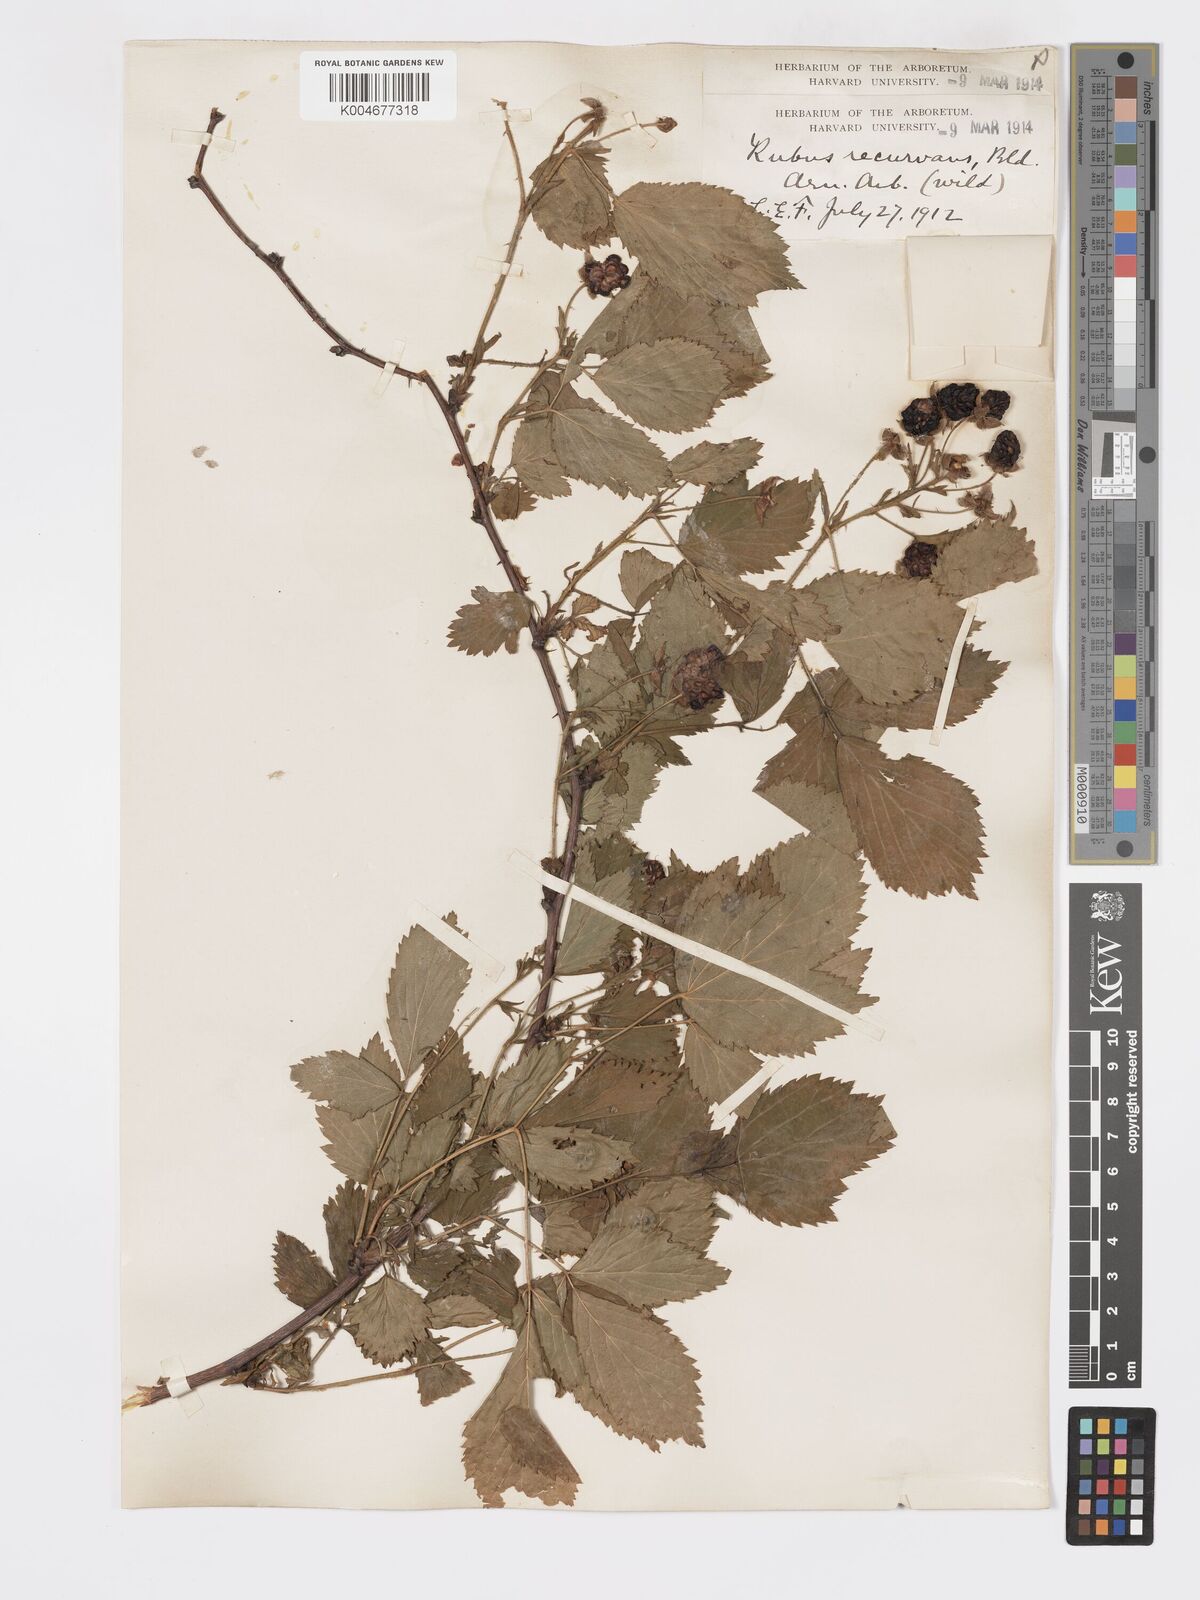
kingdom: Plantae
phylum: Tracheophyta
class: Magnoliopsida
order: Rosales
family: Rosaceae
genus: Rubus
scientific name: Rubus recurvans
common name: Recurved blackberry
